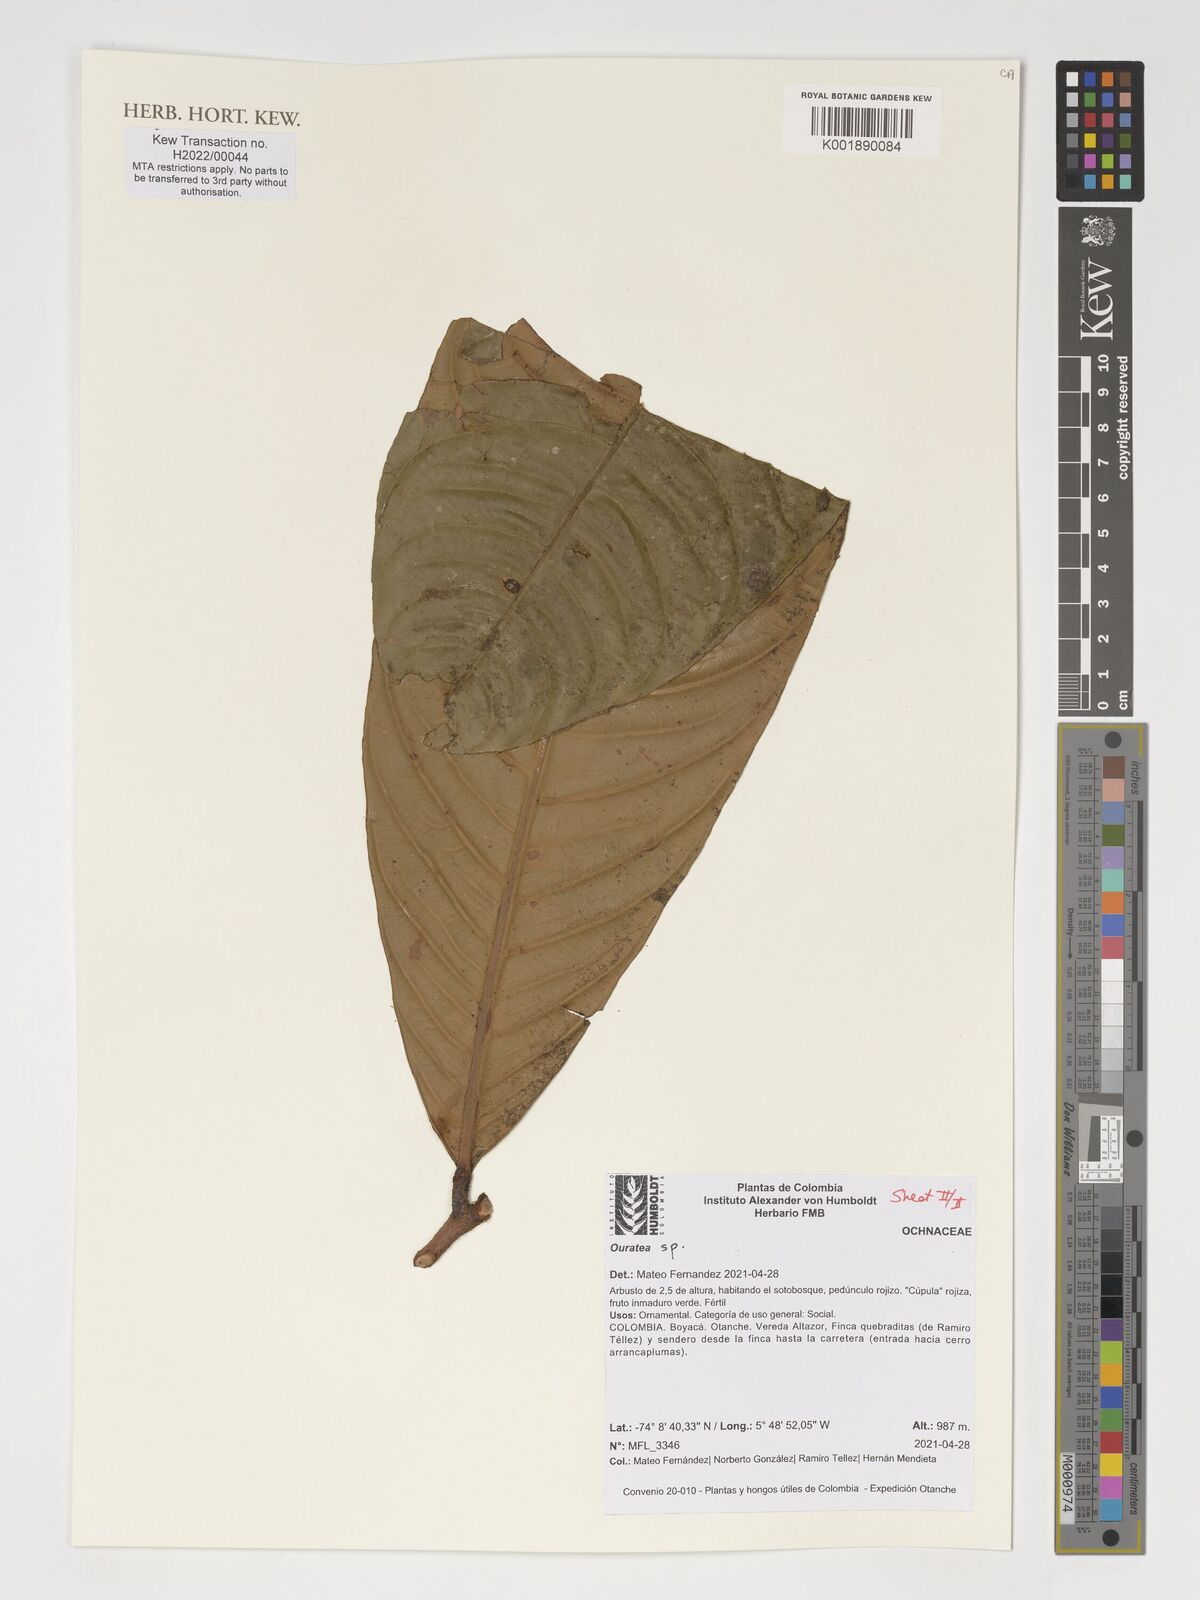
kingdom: Plantae
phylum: Tracheophyta
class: Magnoliopsida
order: Malpighiales
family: Ochnaceae
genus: Ouratea
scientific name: Ouratea
